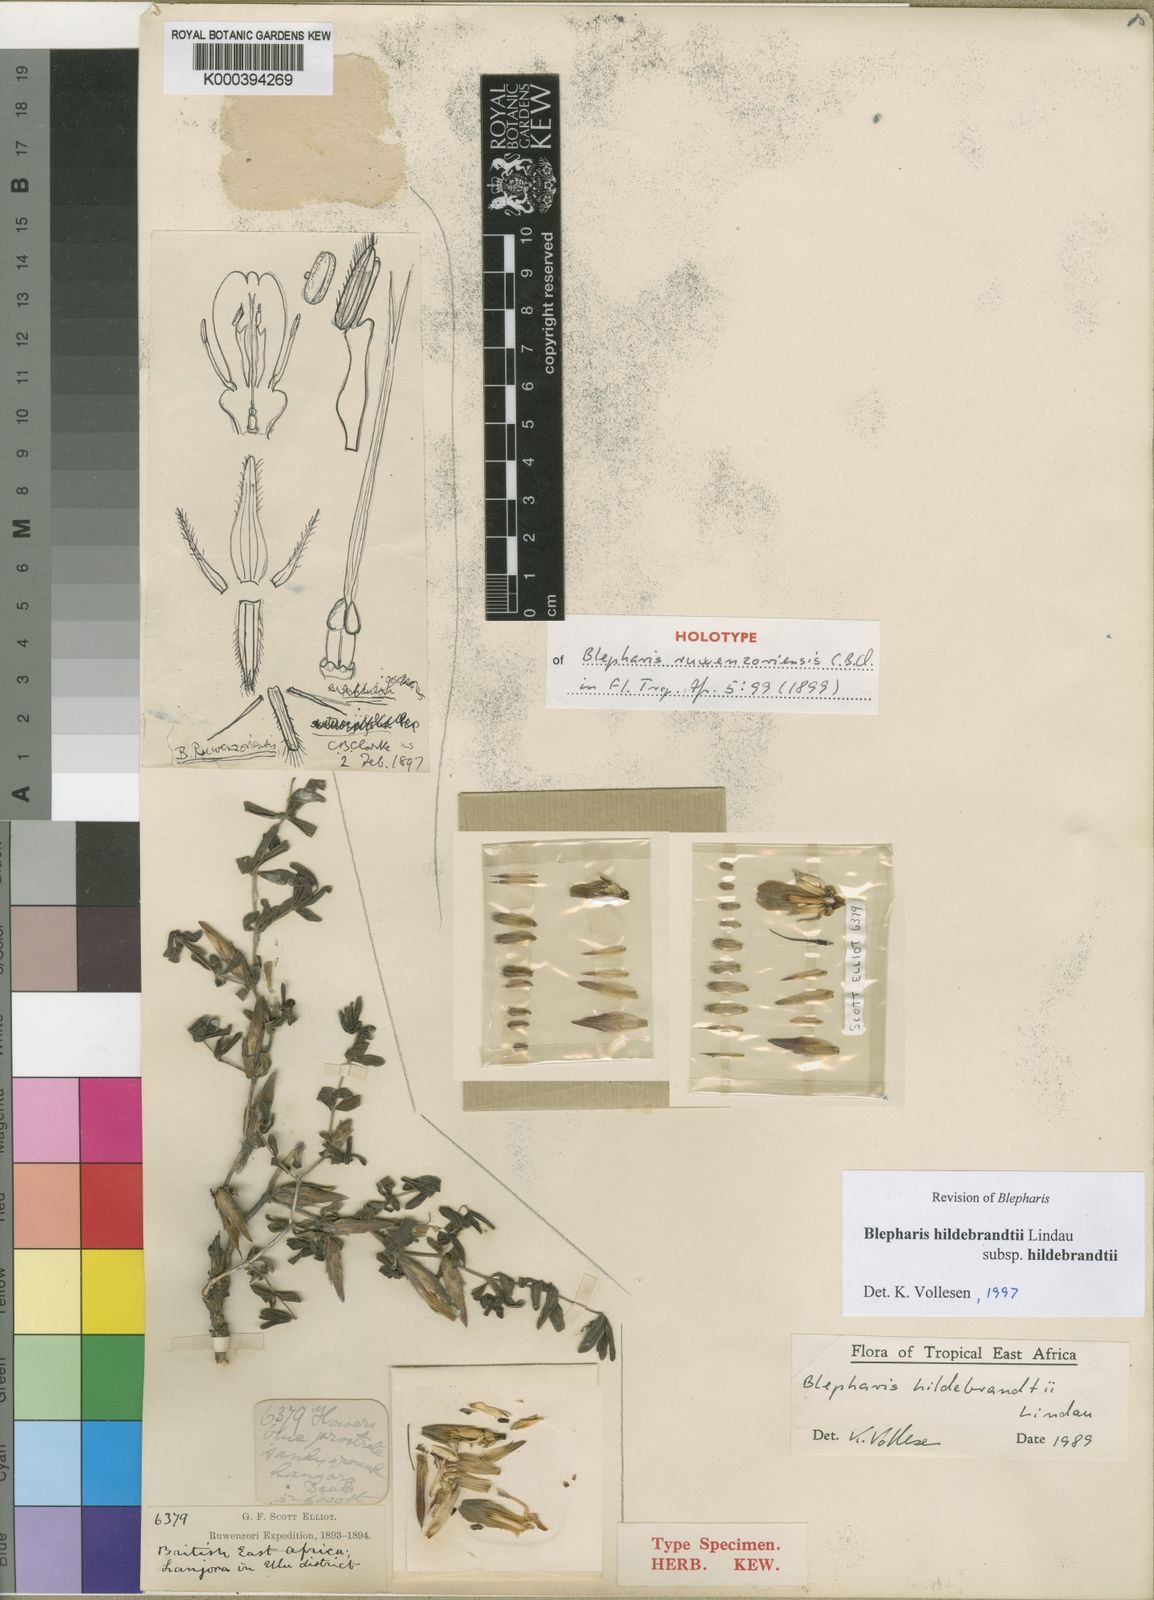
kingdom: Plantae
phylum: Tracheophyta
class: Magnoliopsida
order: Lamiales
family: Acanthaceae
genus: Blepharis
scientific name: Blepharis hildebrandtii
